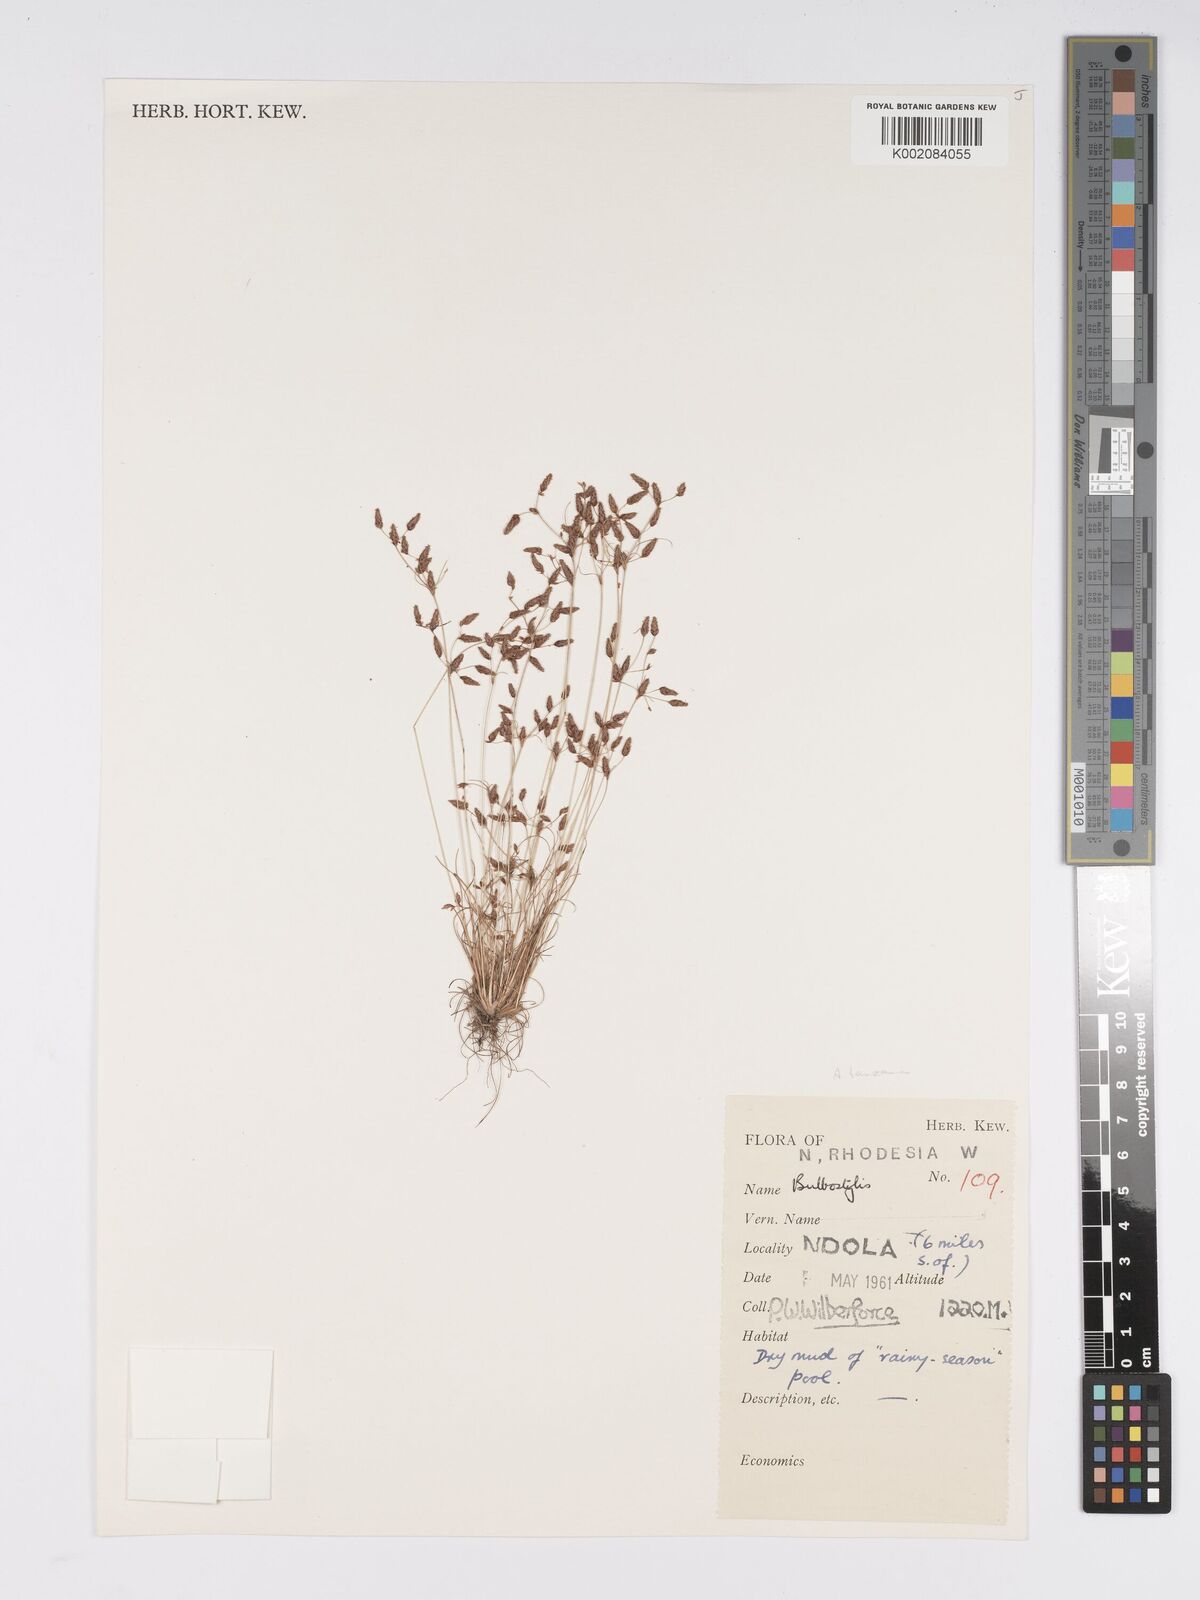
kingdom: Plantae
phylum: Tracheophyta
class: Liliopsida
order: Poales
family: Cyperaceae
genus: Bulbostylis
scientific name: Bulbostylis tanzaniae
